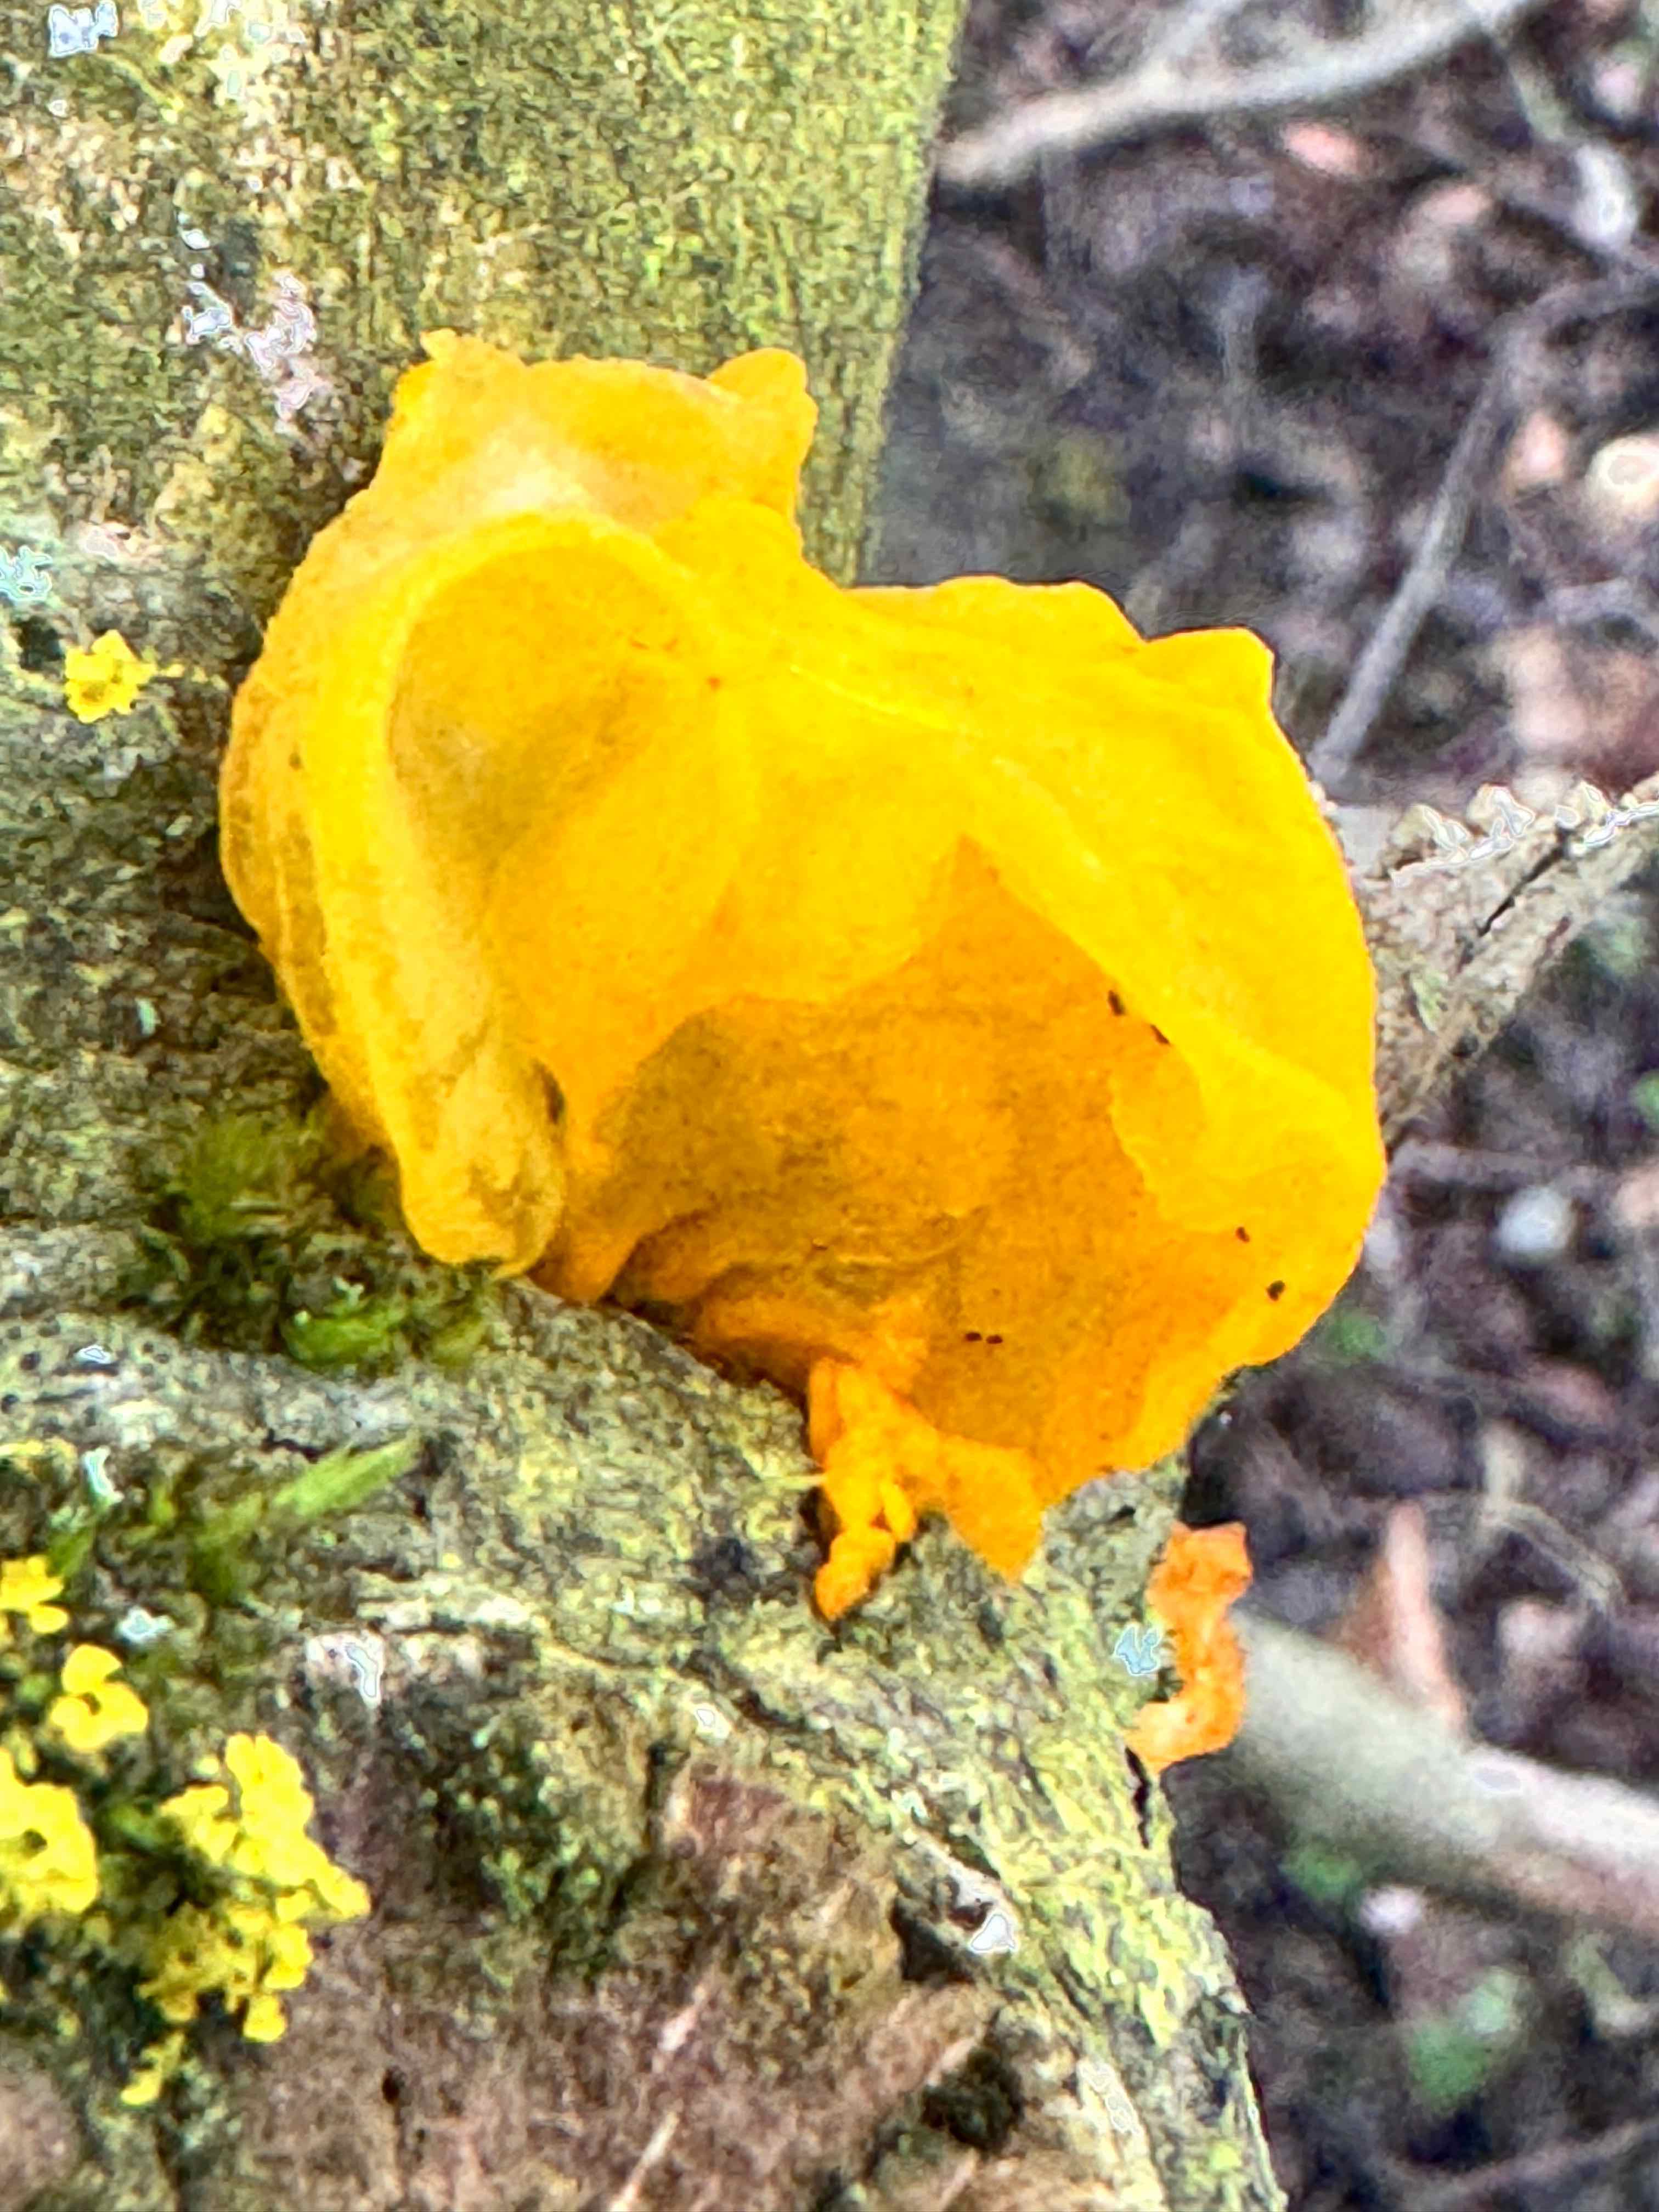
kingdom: Fungi
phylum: Basidiomycota
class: Tremellomycetes
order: Tremellales
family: Tremellaceae
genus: Tremella
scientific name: Tremella mesenterica
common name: gul bævresvamp
